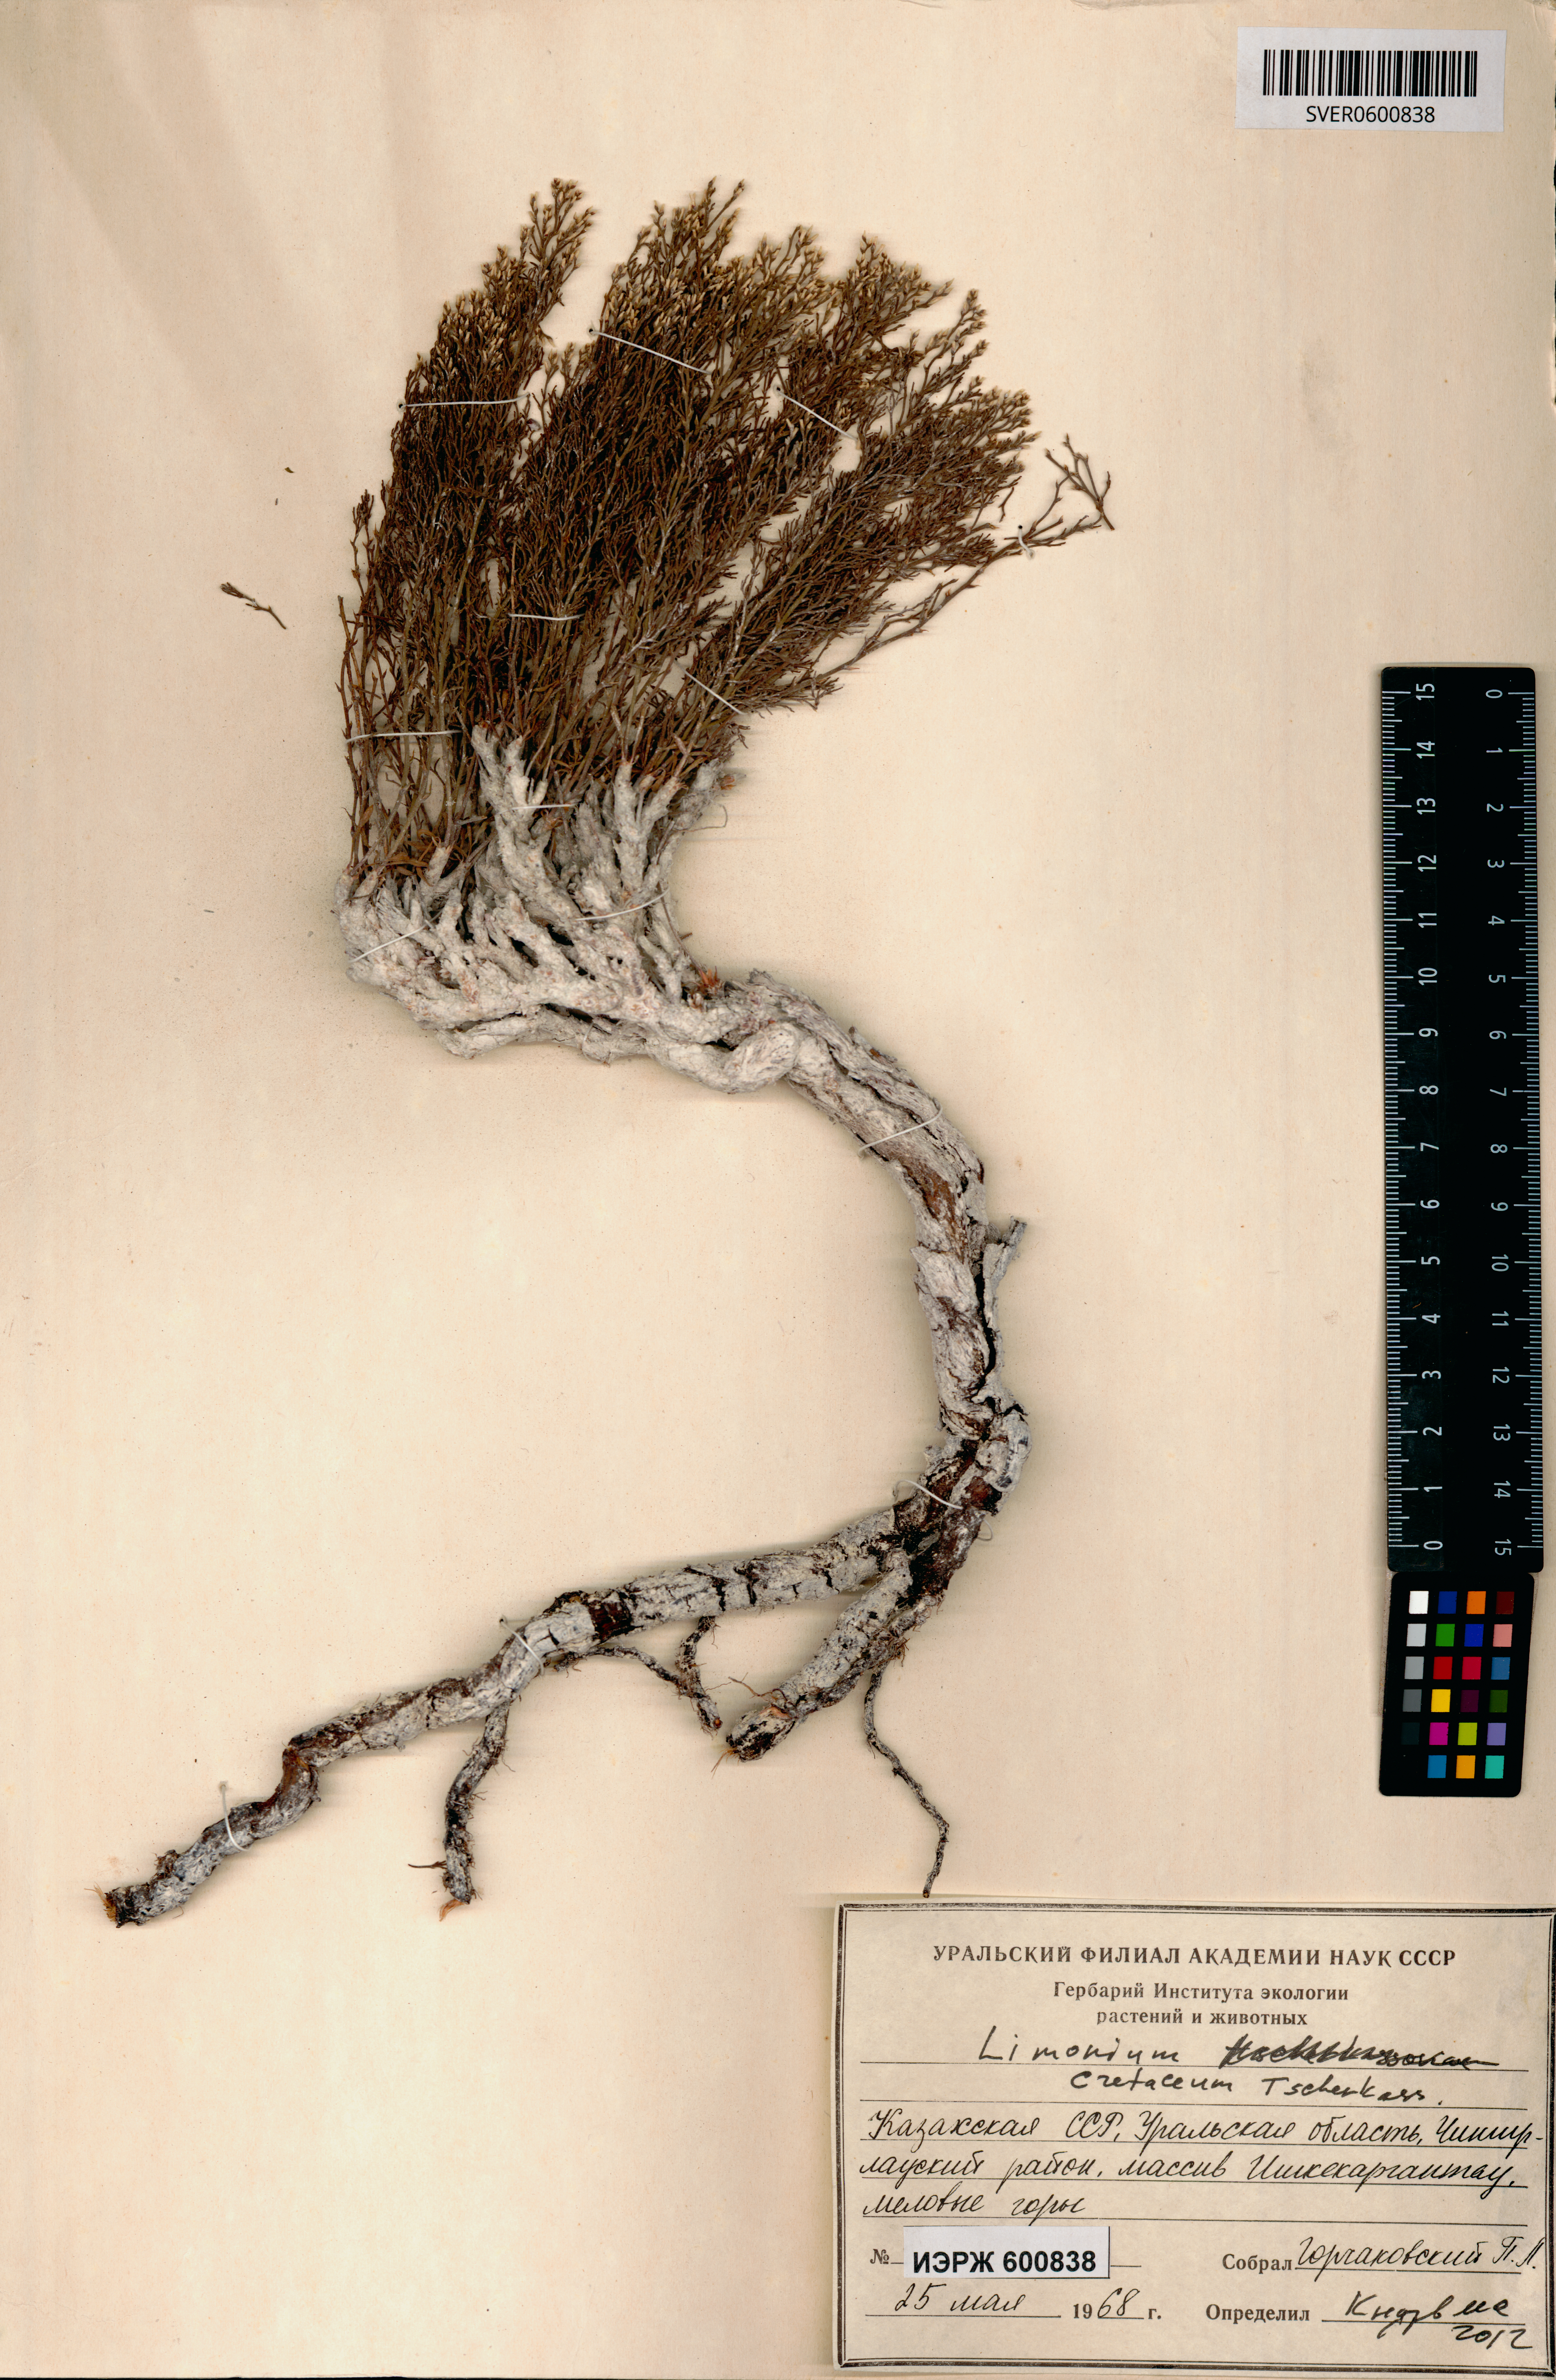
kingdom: Plantae
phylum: Tracheophyta
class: Magnoliopsida
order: Caryophyllales
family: Plumbaginaceae
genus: Limonium
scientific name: Limonium cretaceum
